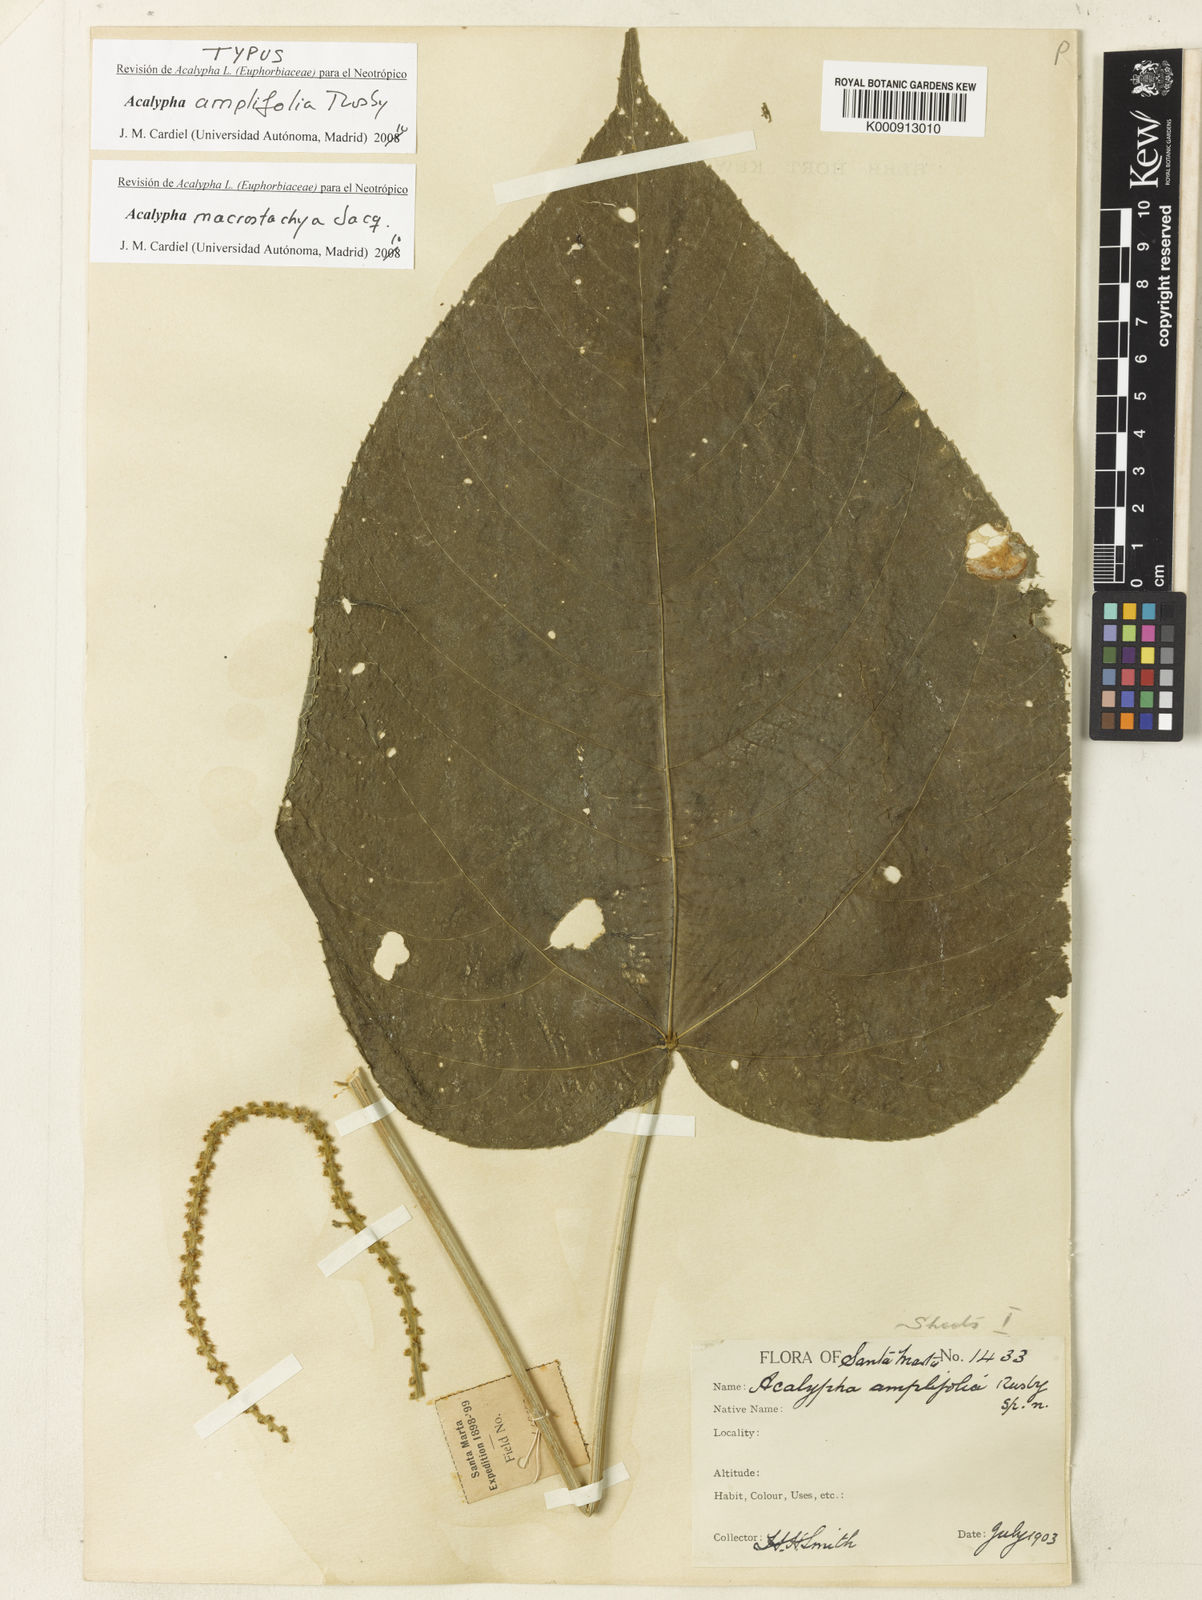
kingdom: Plantae
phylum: Tracheophyta
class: Magnoliopsida
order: Malpighiales
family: Euphorbiaceae
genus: Acalypha
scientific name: Acalypha macrostachya
